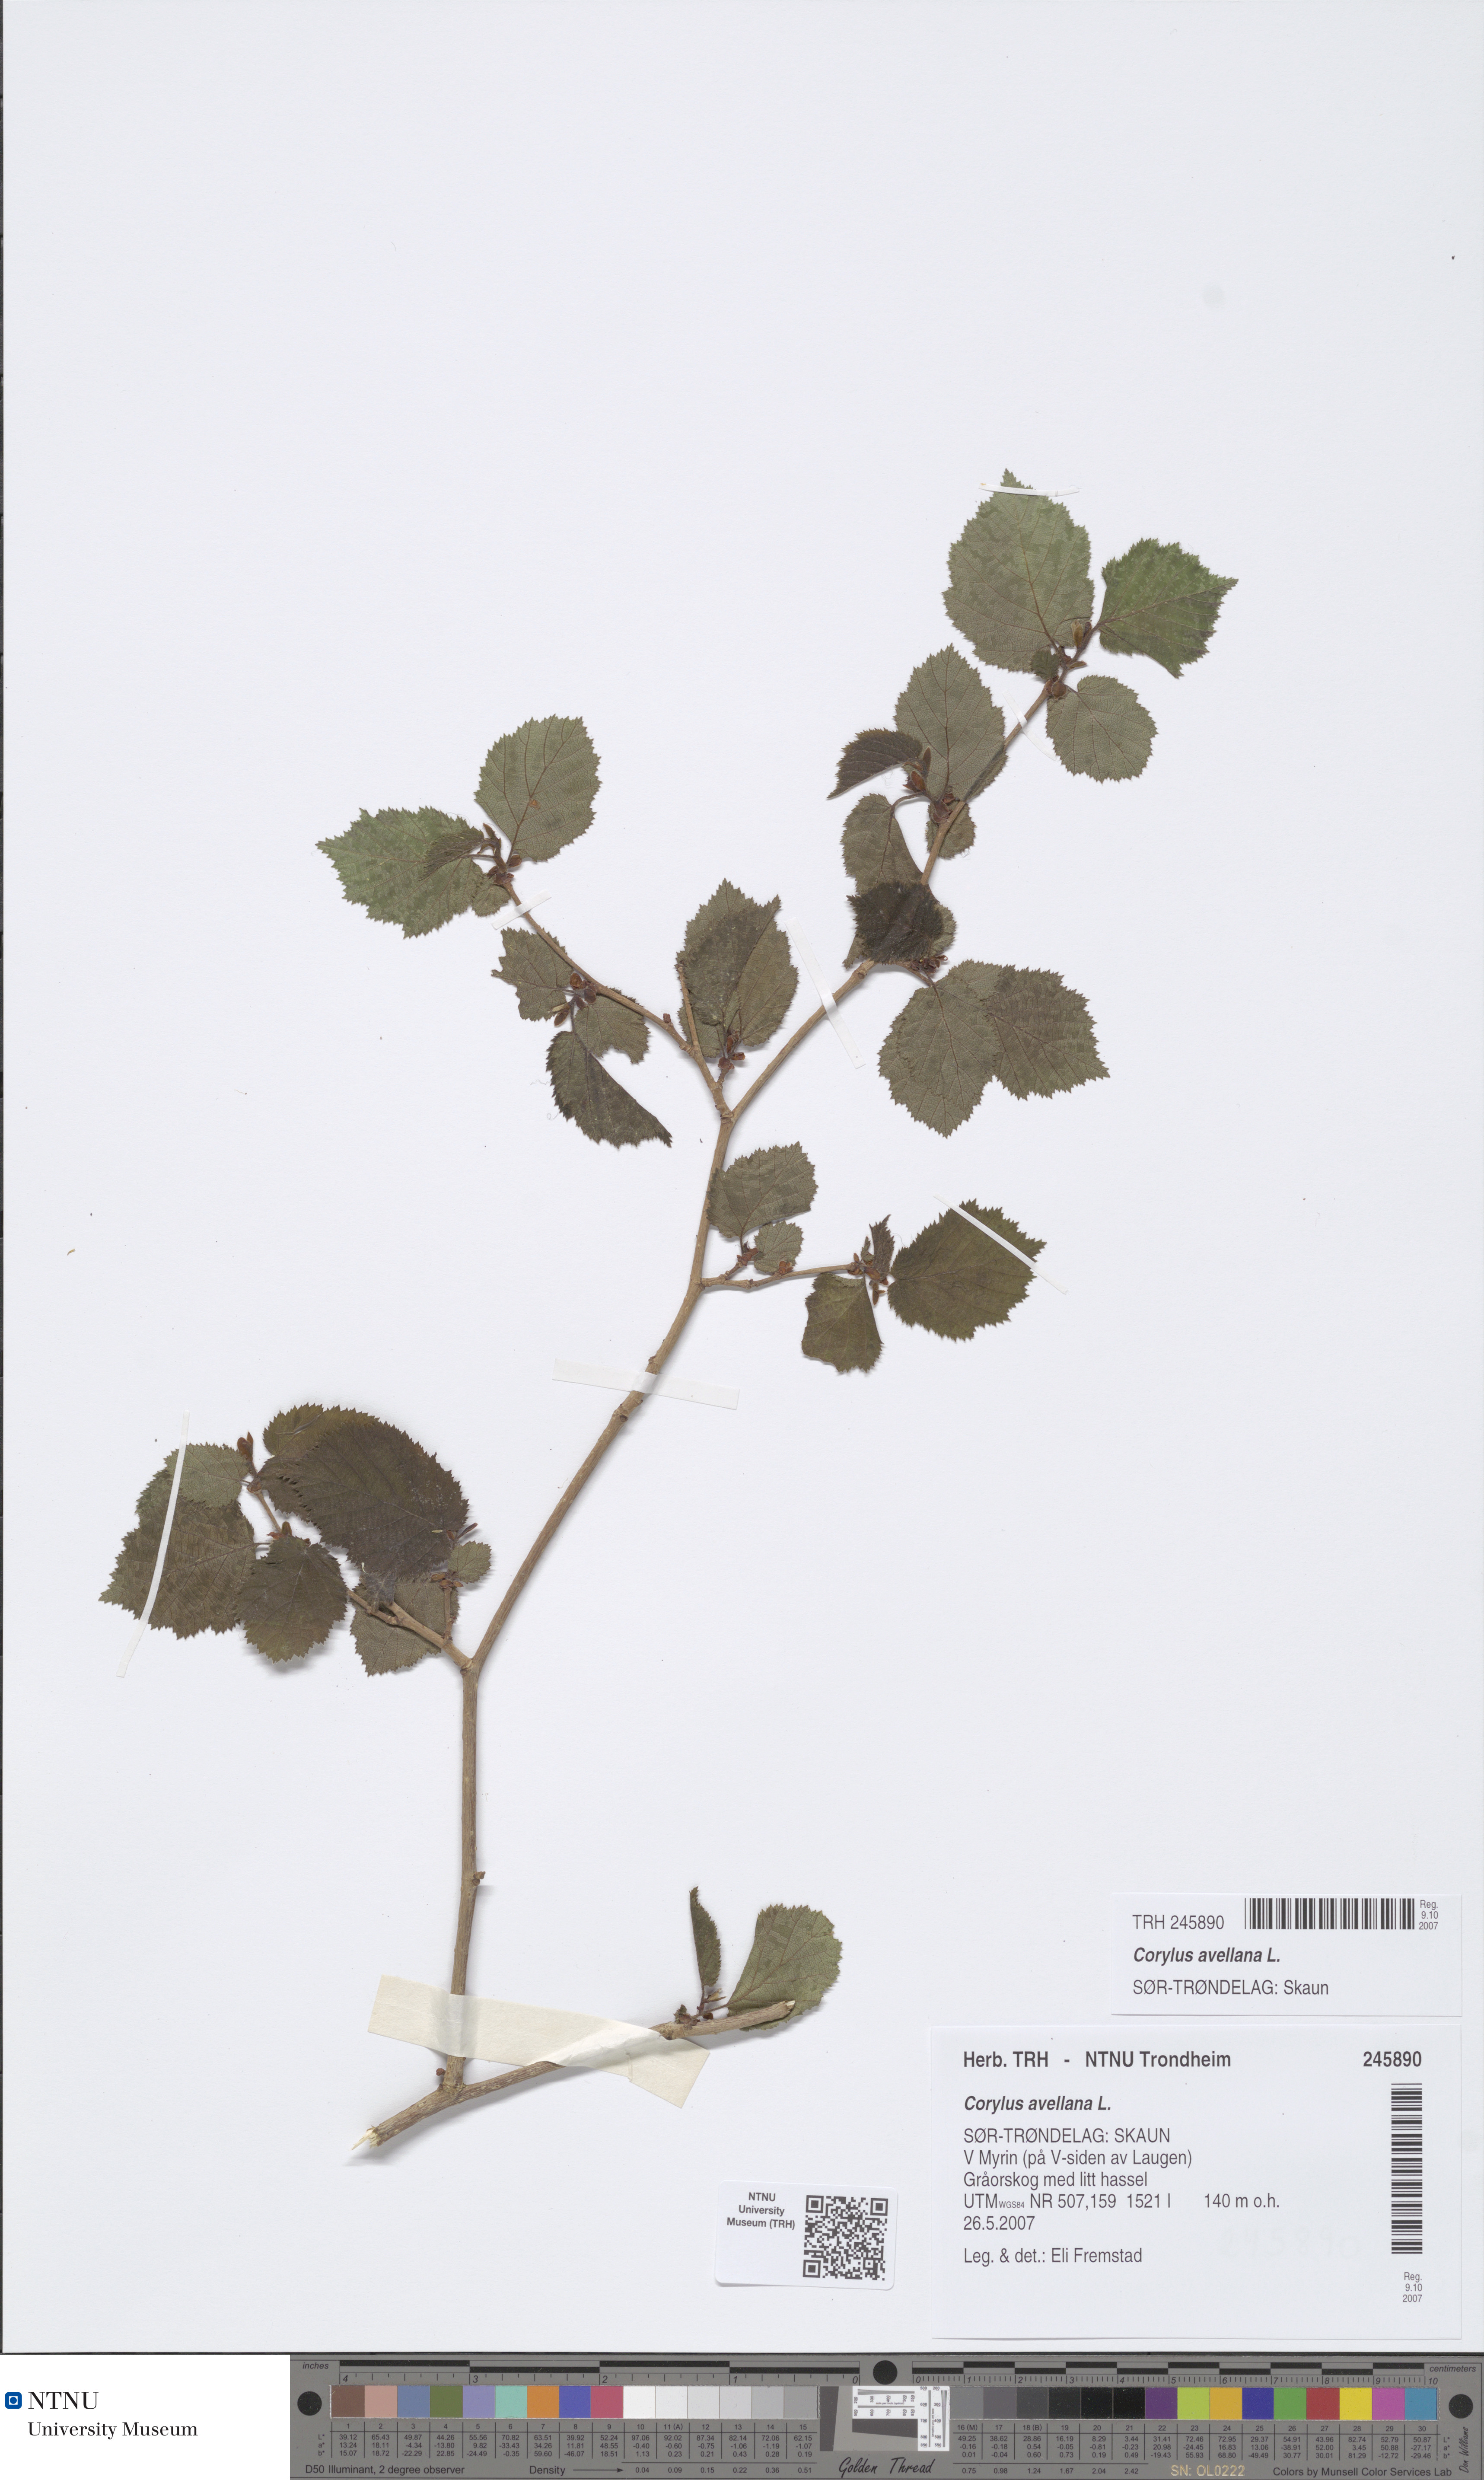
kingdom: Plantae
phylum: Tracheophyta
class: Magnoliopsida
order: Fagales
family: Betulaceae
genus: Corylus
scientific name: Corylus avellana
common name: European hazel
